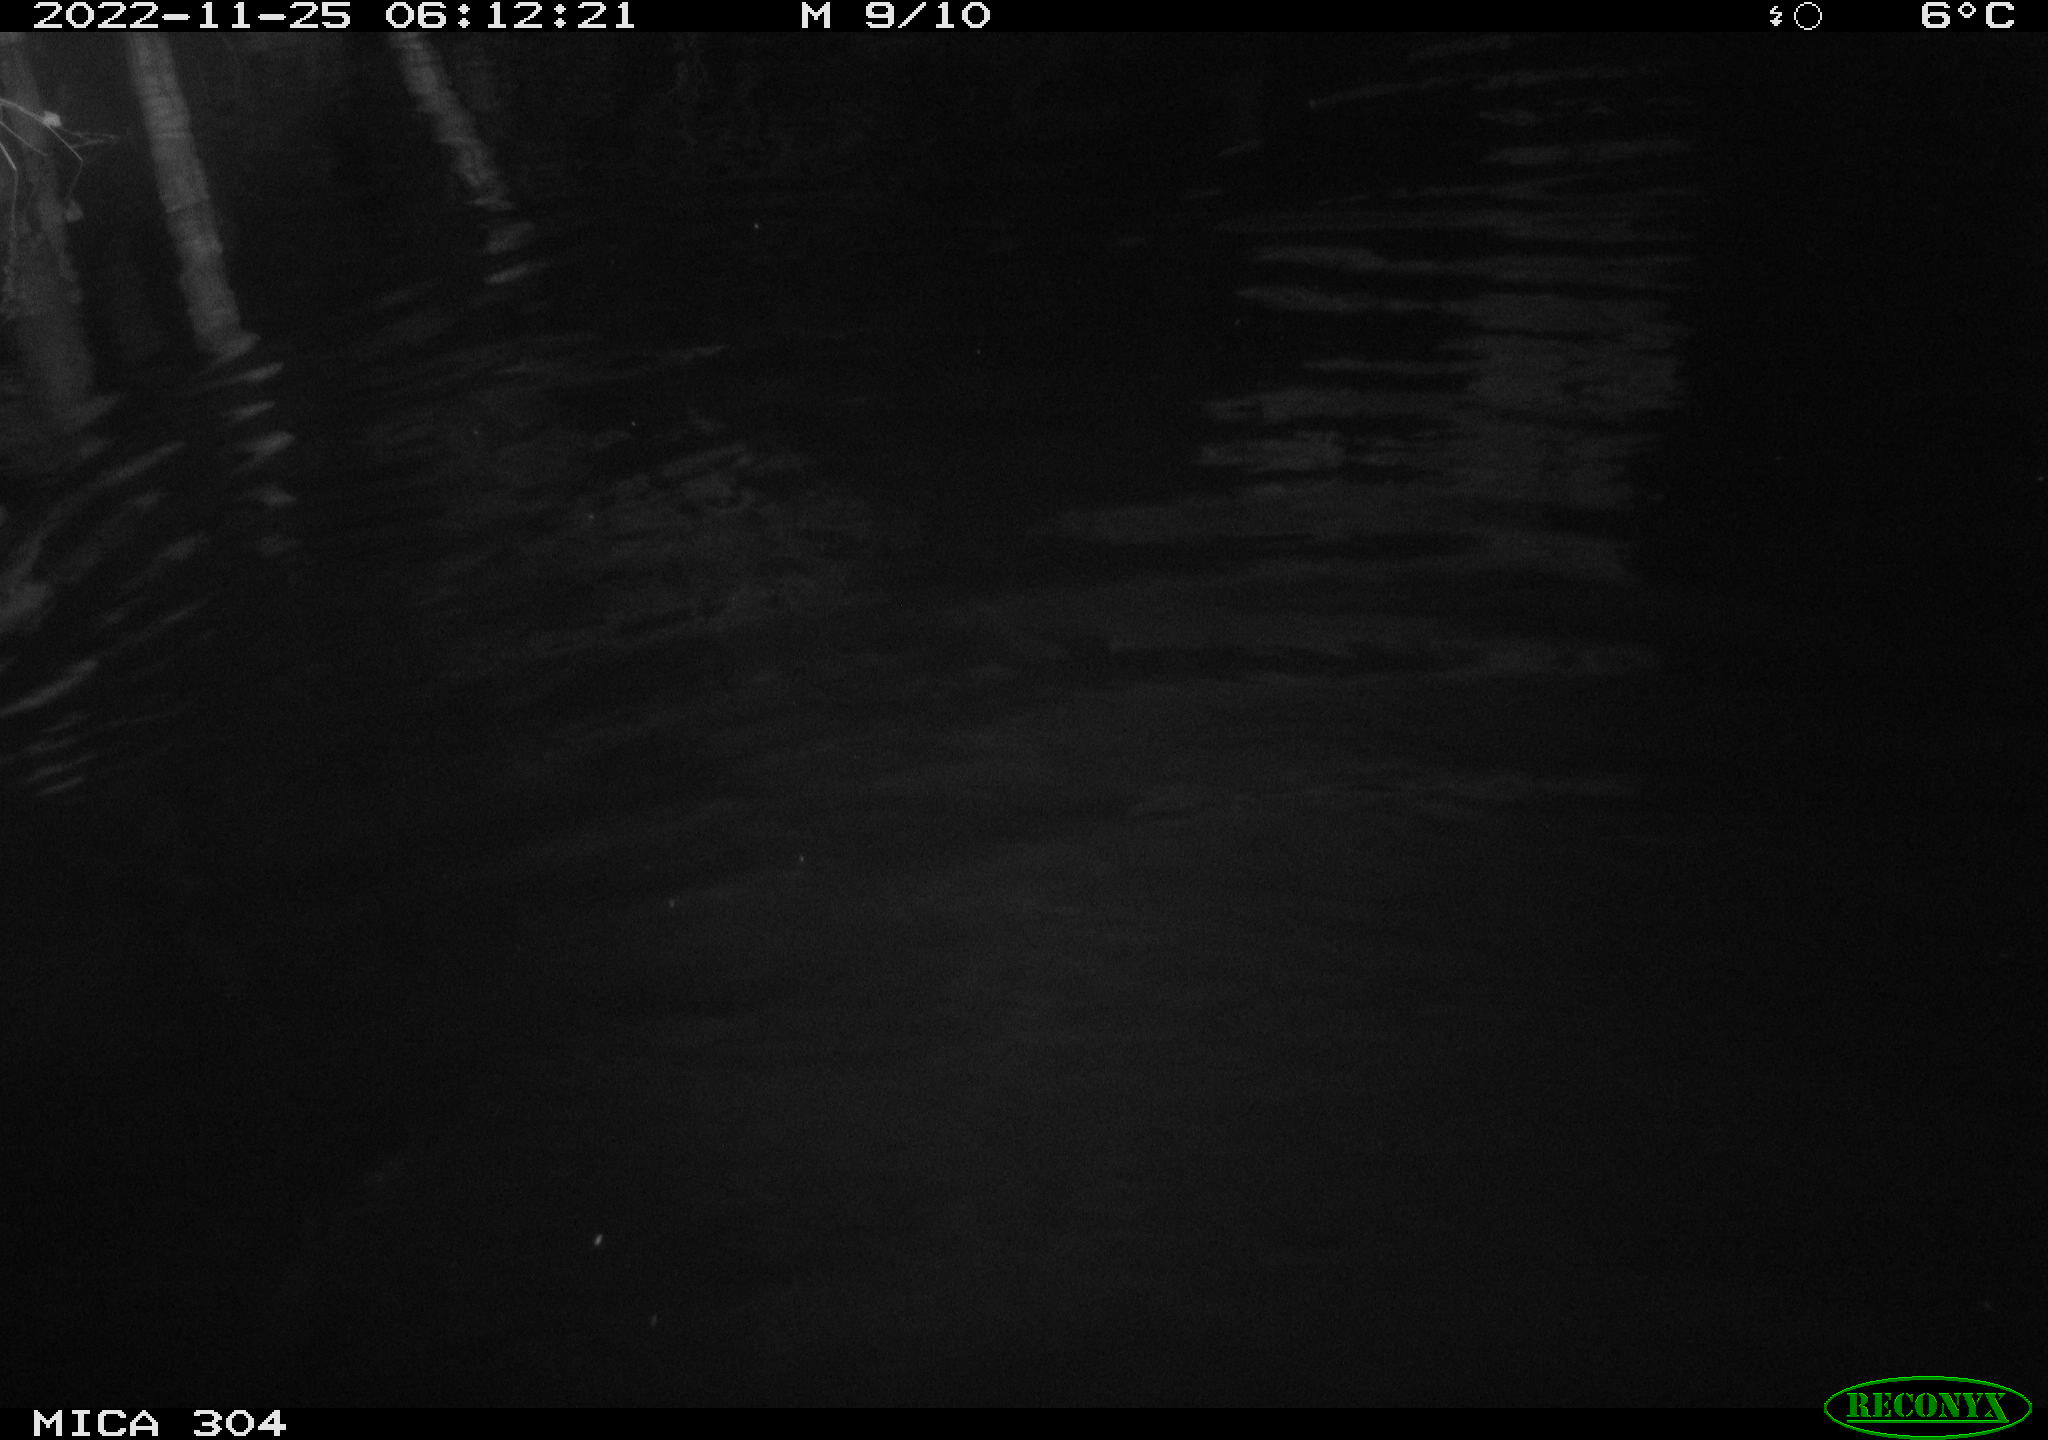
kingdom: Animalia
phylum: Chordata
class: Aves
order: Anseriformes
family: Anatidae
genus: Anas
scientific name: Anas
